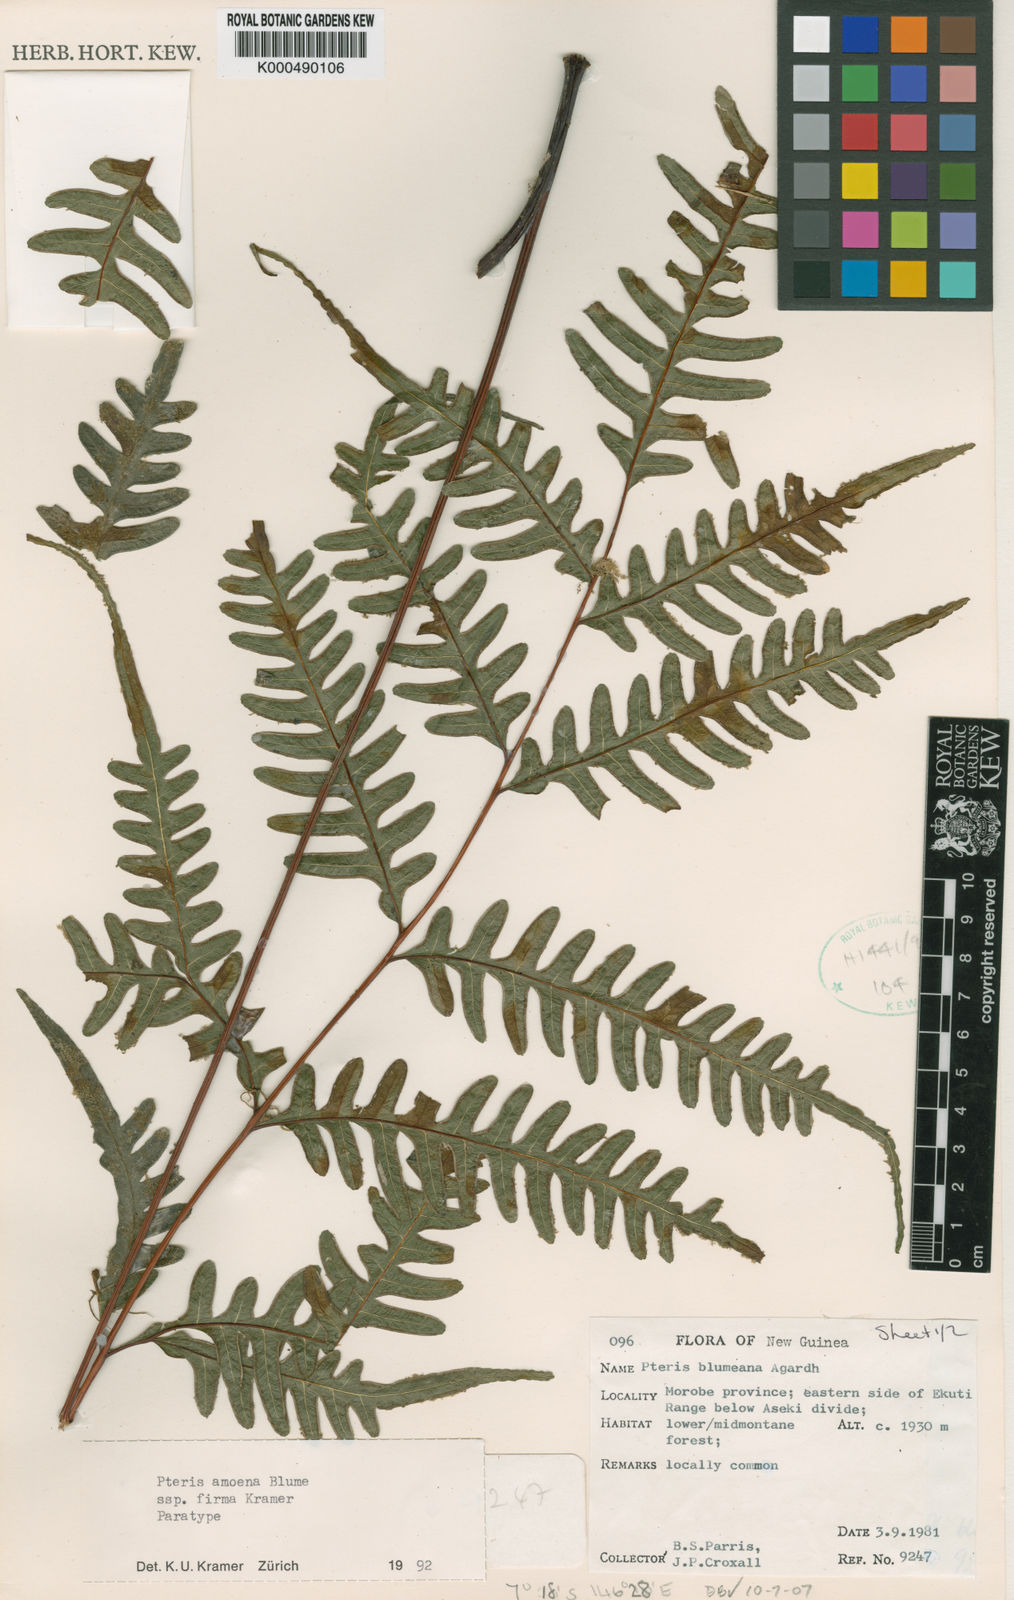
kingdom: Plantae
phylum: Tracheophyta
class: Polypodiopsida
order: Polypodiales
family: Pteridaceae
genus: Pteris
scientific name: Pteris amoena
